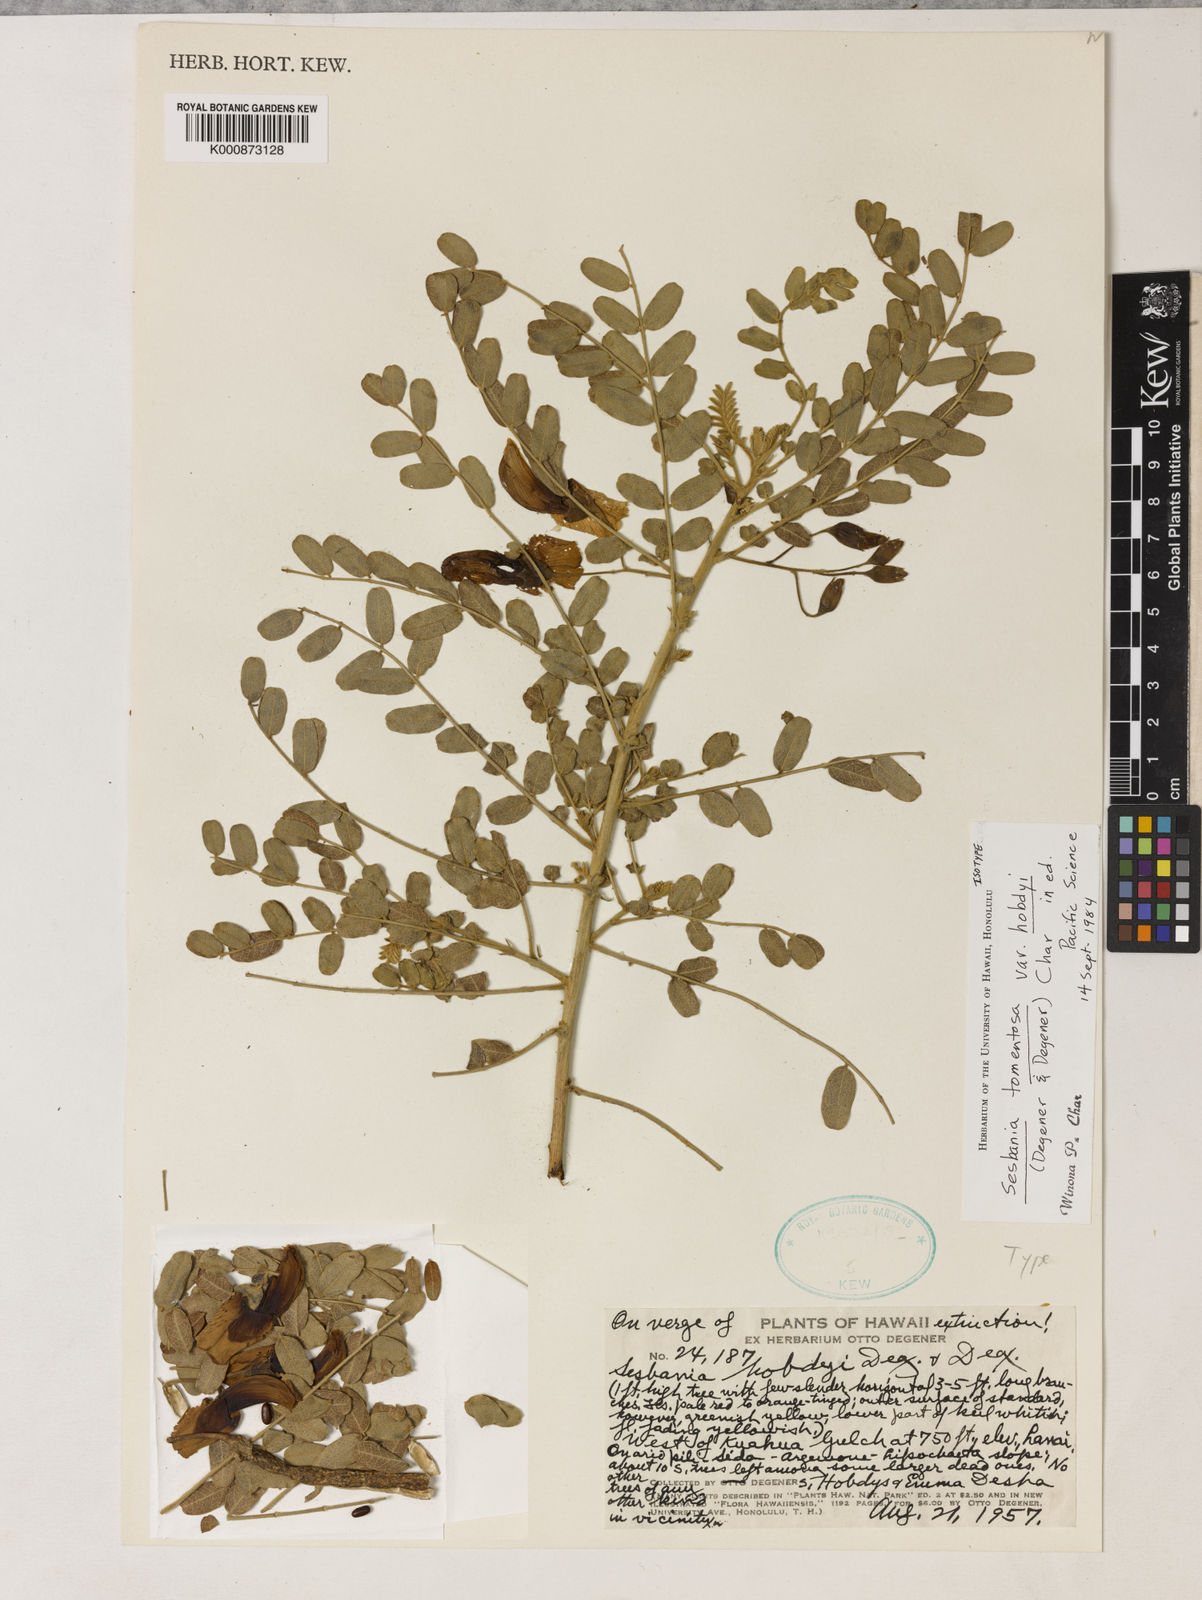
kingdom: Plantae
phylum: Tracheophyta
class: Magnoliopsida
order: Fabales
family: Fabaceae
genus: Sesbania
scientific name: Sesbania tomentosa
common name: `ohai
